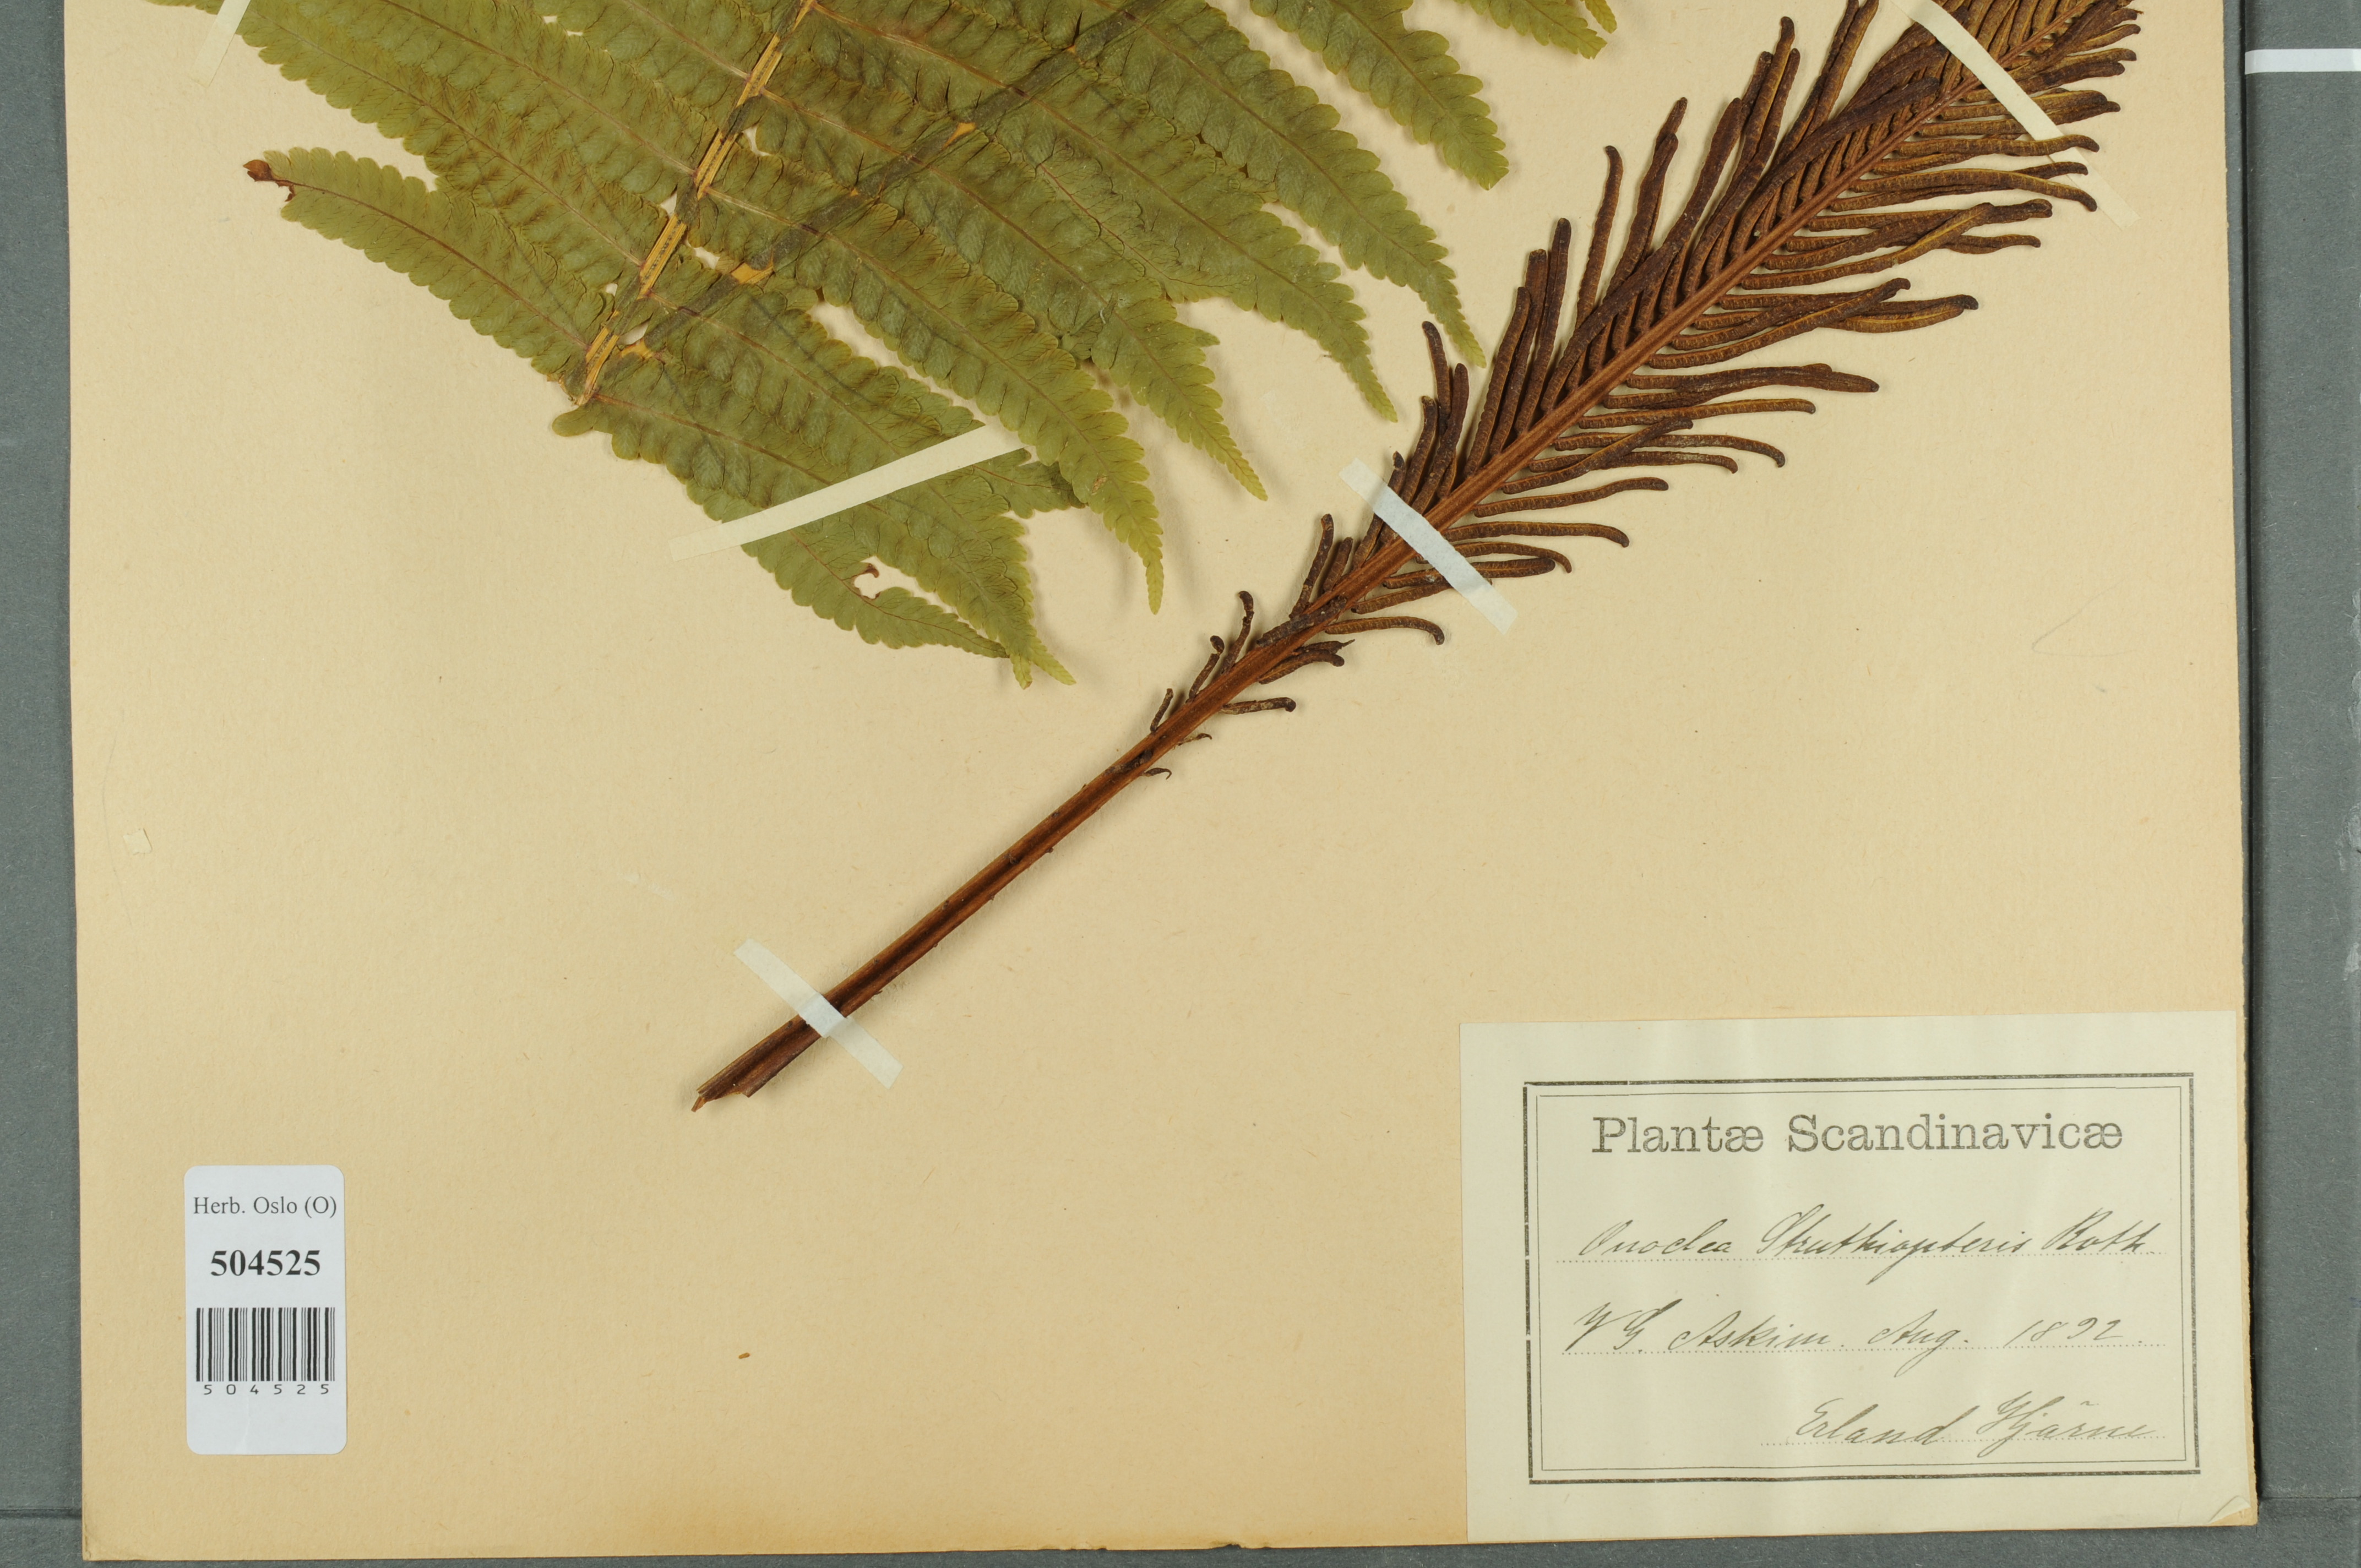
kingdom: Plantae
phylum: Tracheophyta
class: Polypodiopsida
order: Polypodiales
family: Onocleaceae
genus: Matteuccia
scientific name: Matteuccia struthiopteris
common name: Ostrich fern
